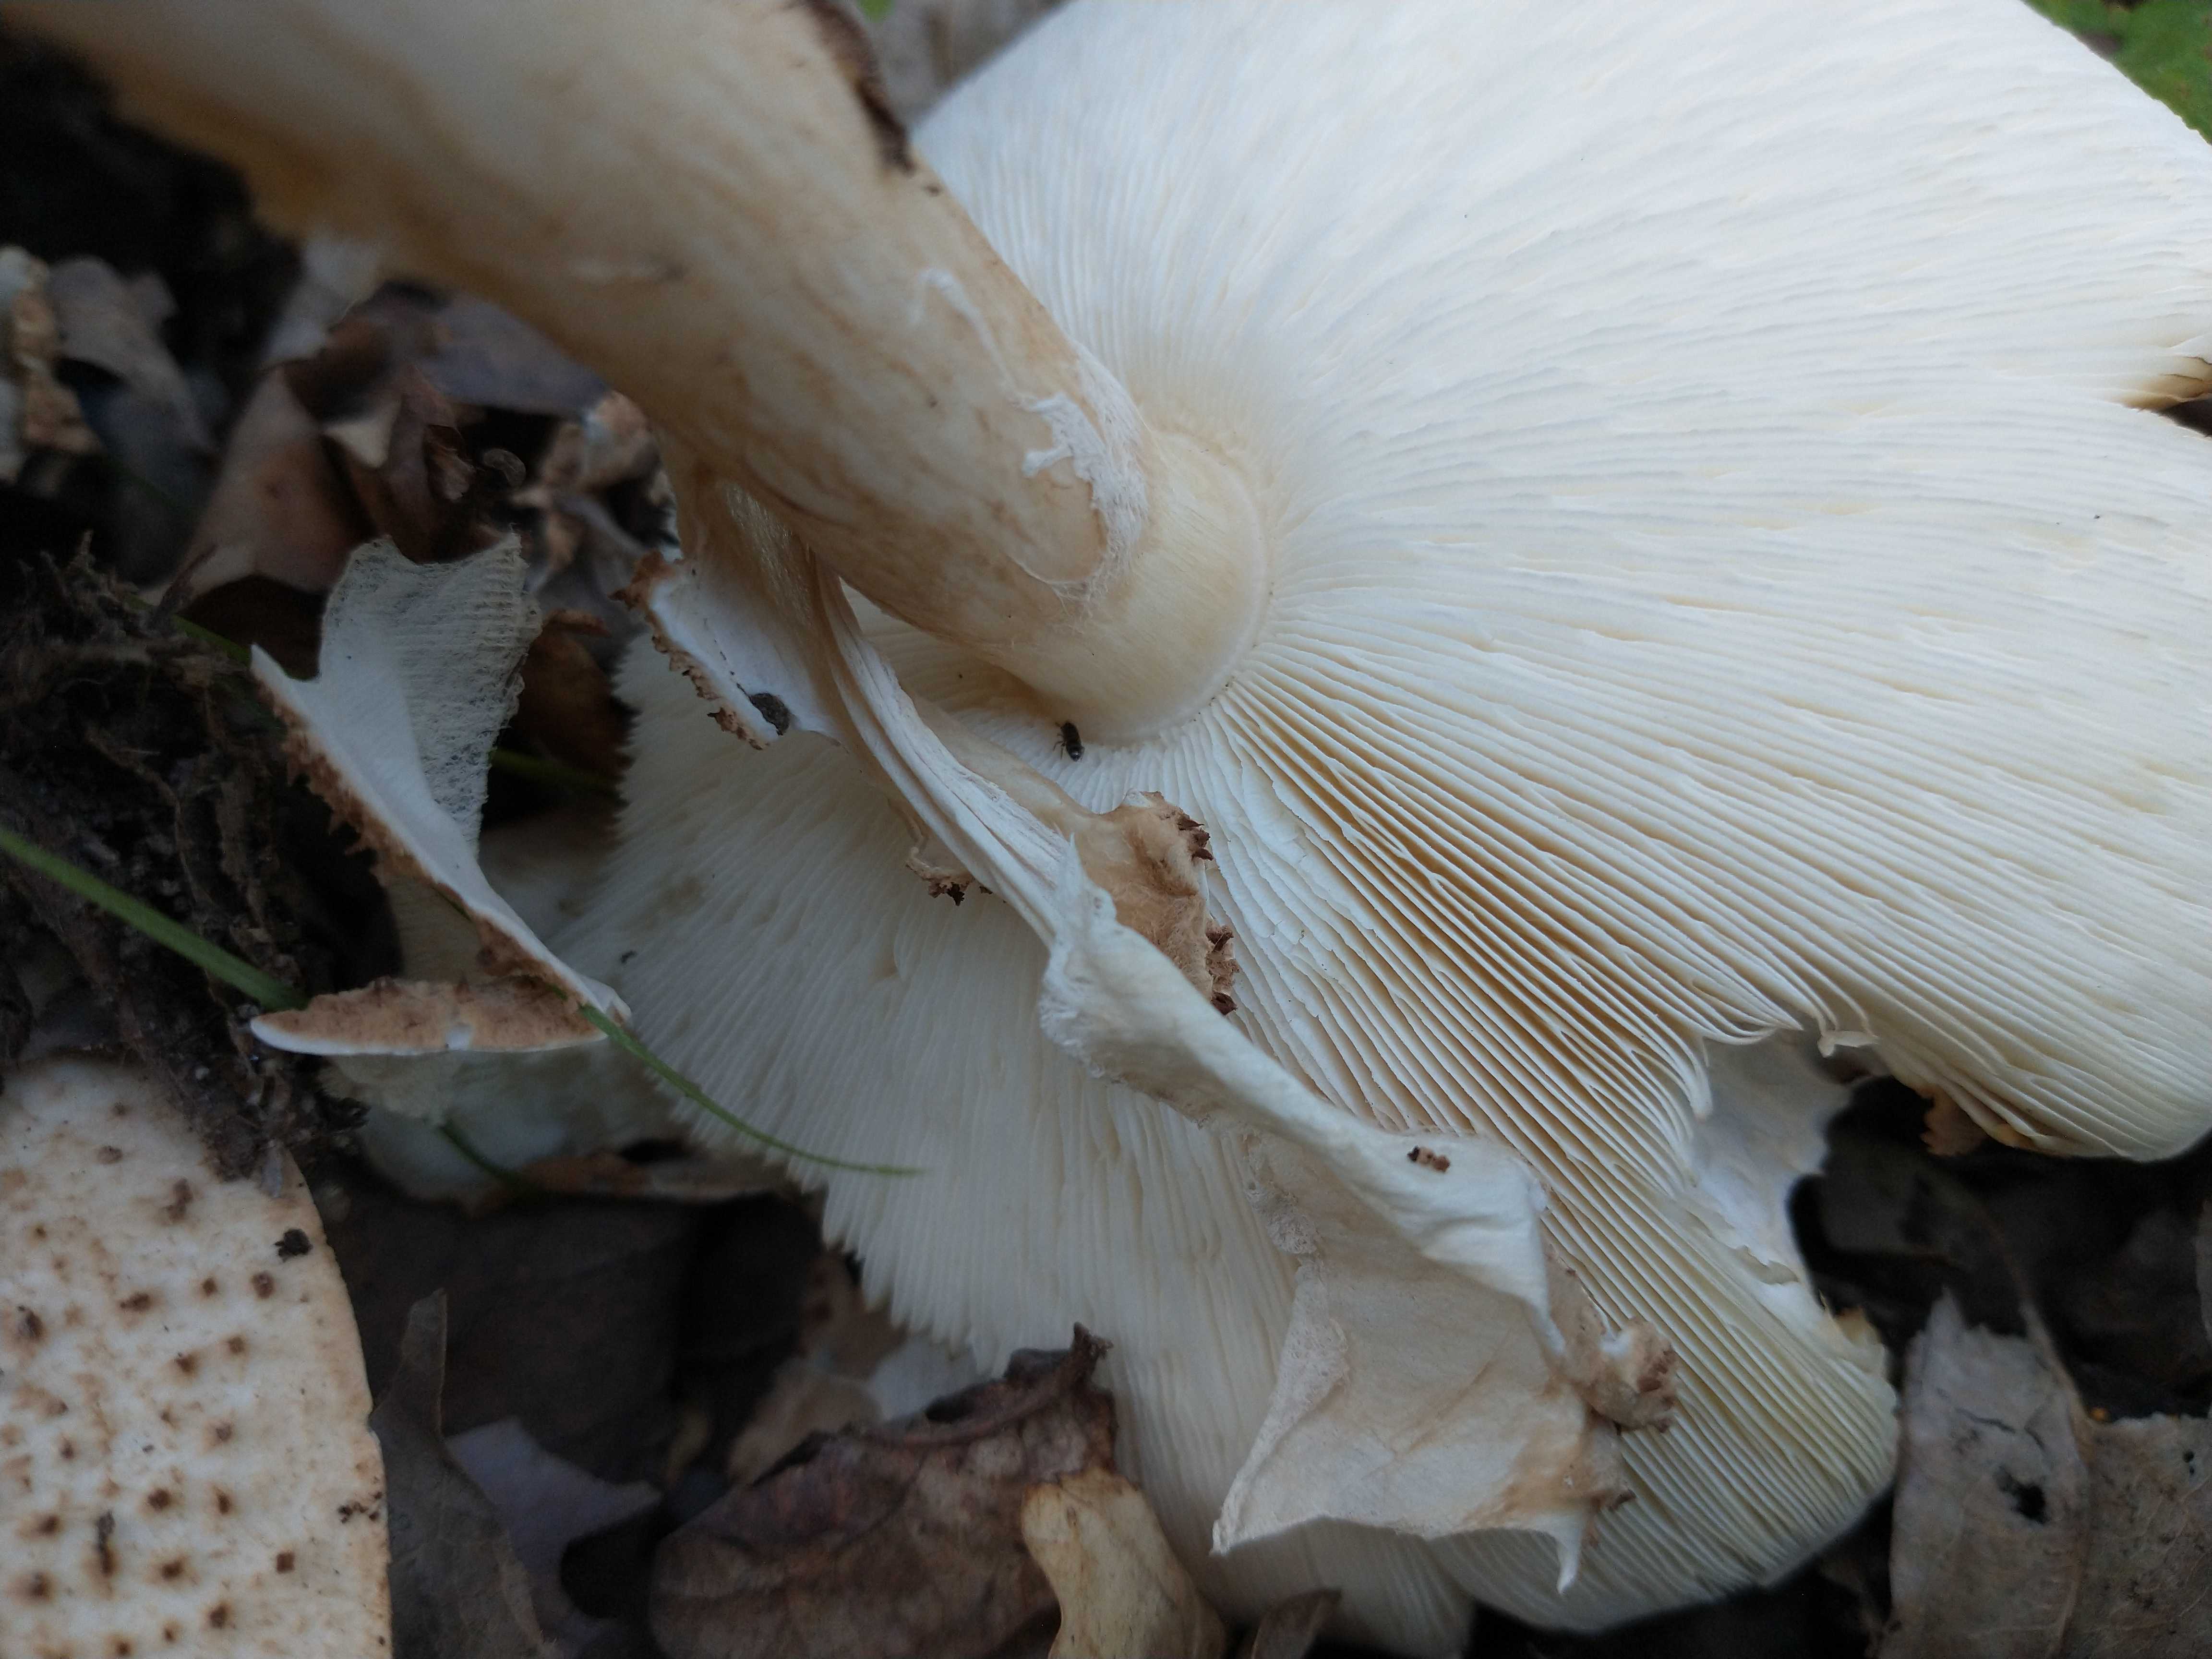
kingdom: Fungi
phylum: Basidiomycota
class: Agaricomycetes
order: Agaricales
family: Agaricaceae
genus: Echinoderma
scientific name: Echinoderma asperum
